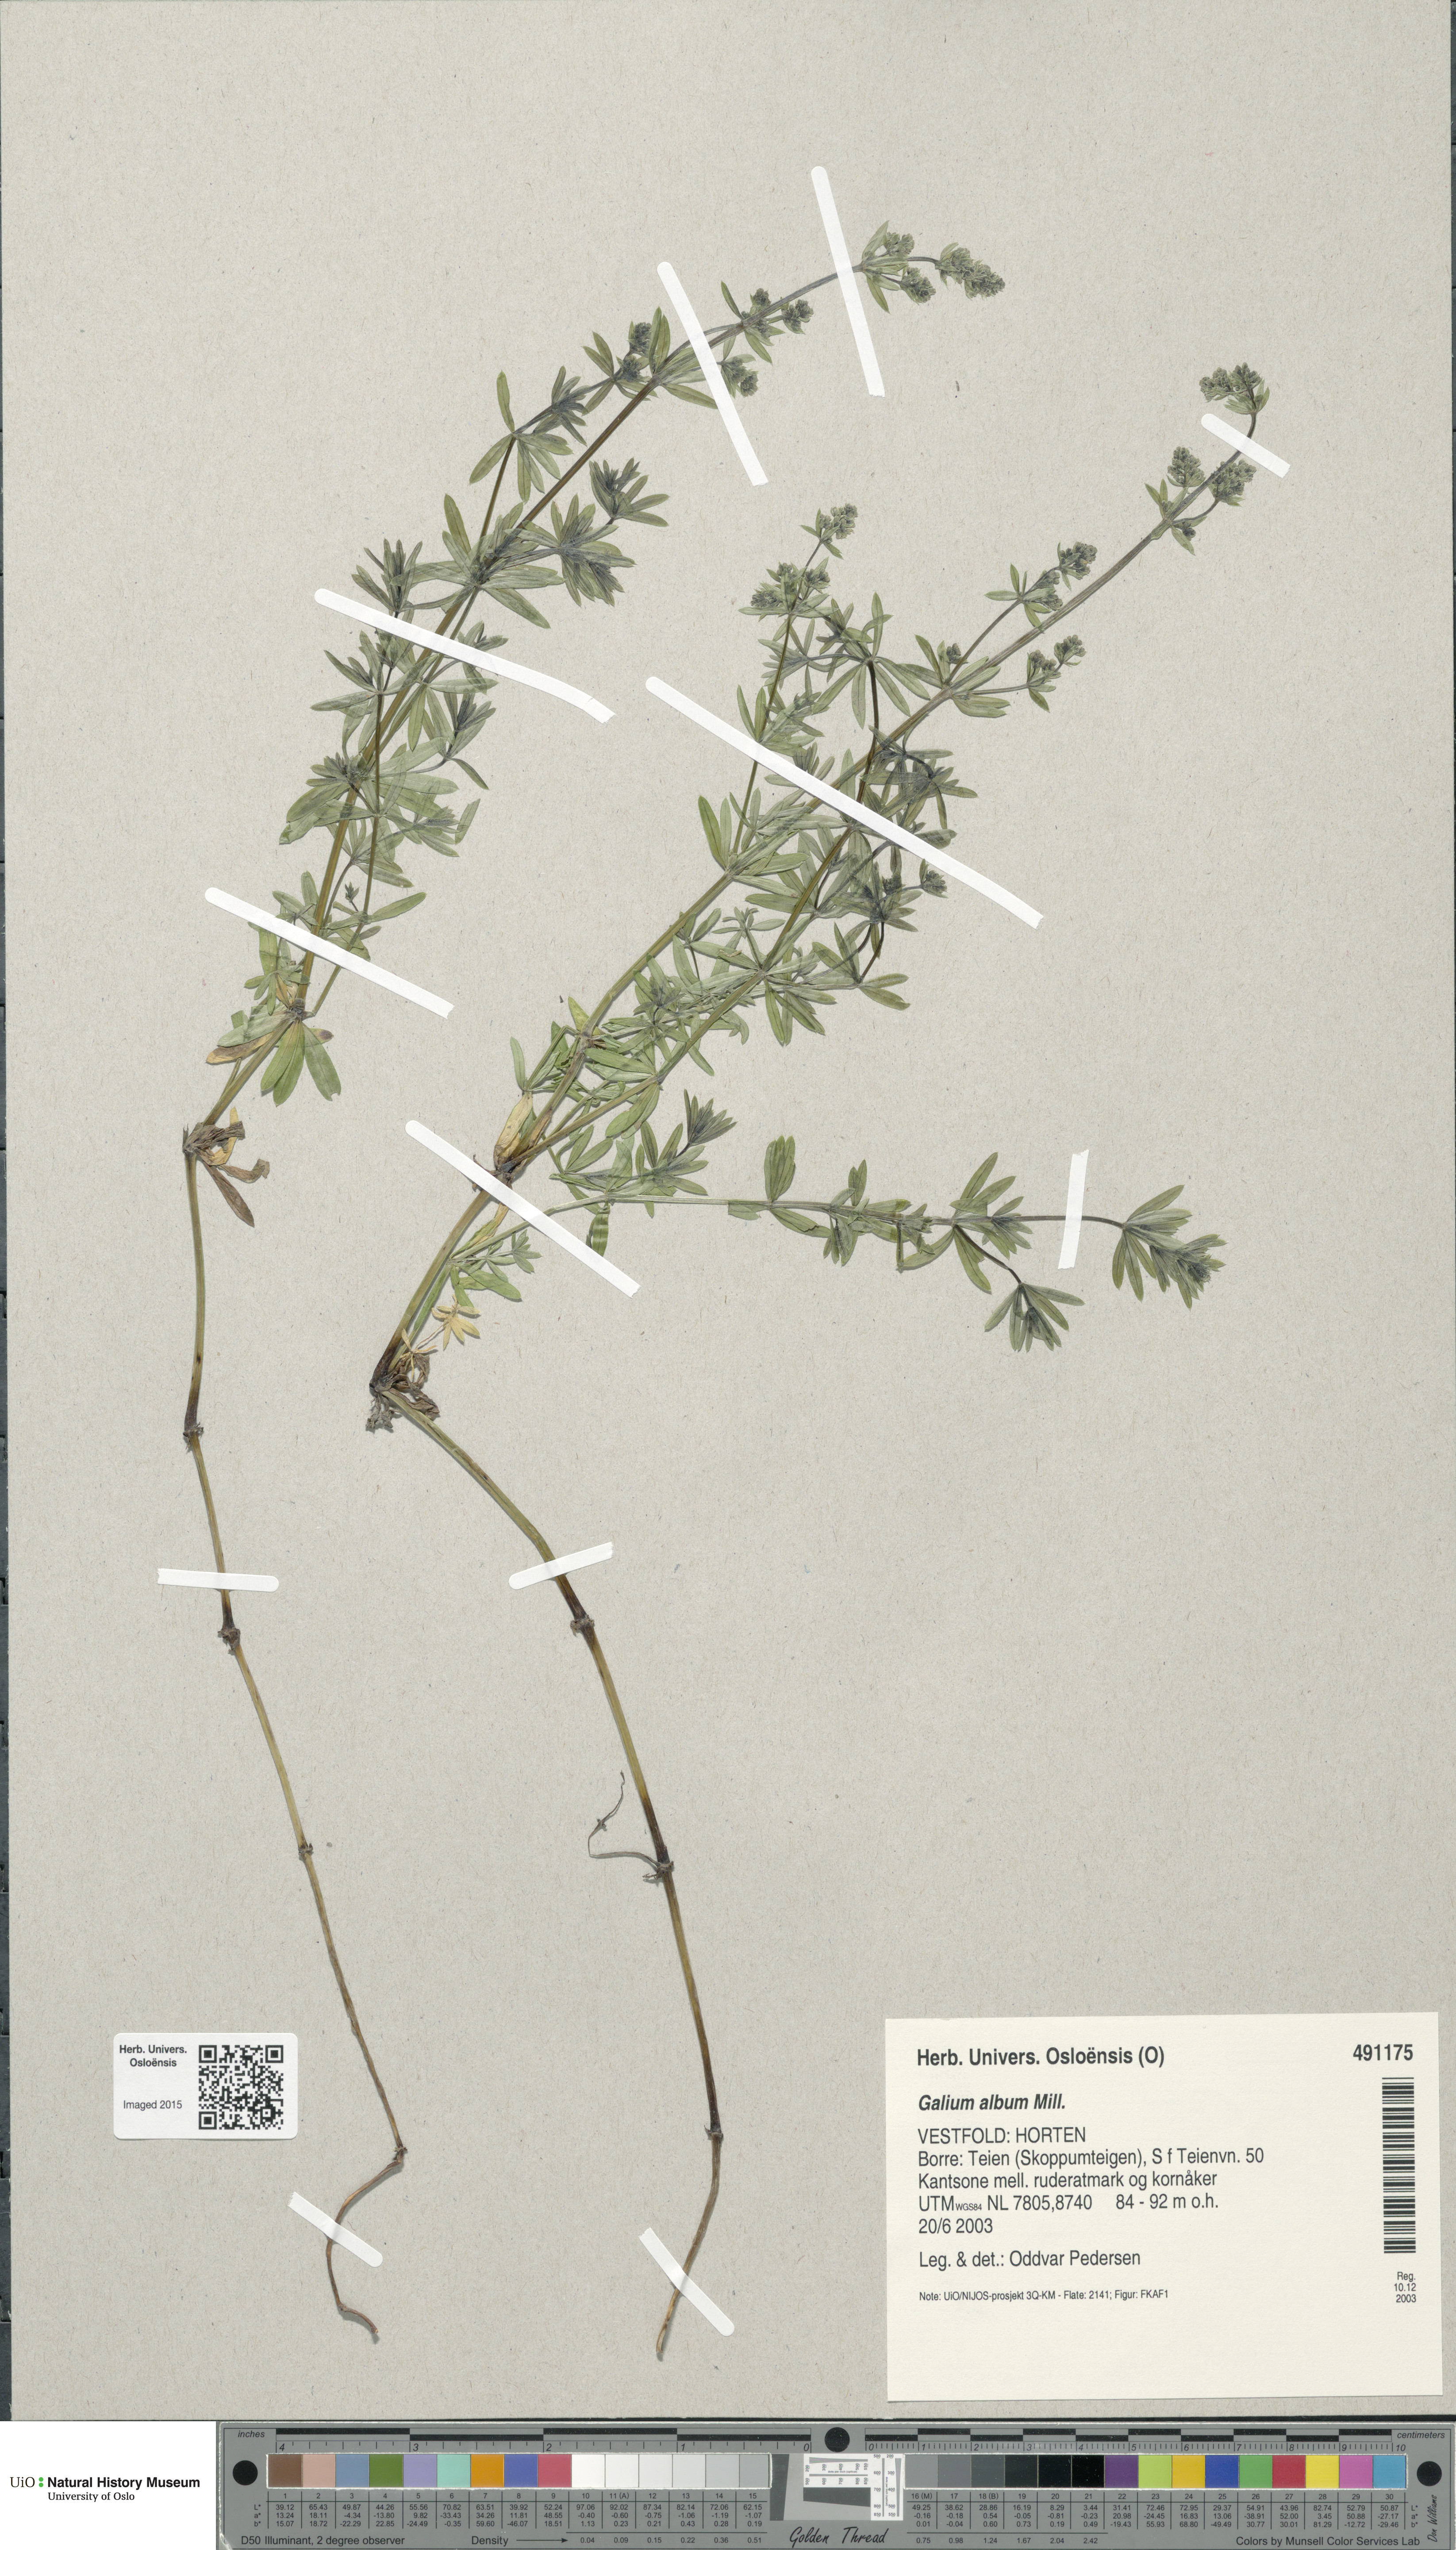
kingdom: Plantae
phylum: Tracheophyta
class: Magnoliopsida
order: Gentianales
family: Rubiaceae
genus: Galium
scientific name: Galium album
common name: White bedstraw
